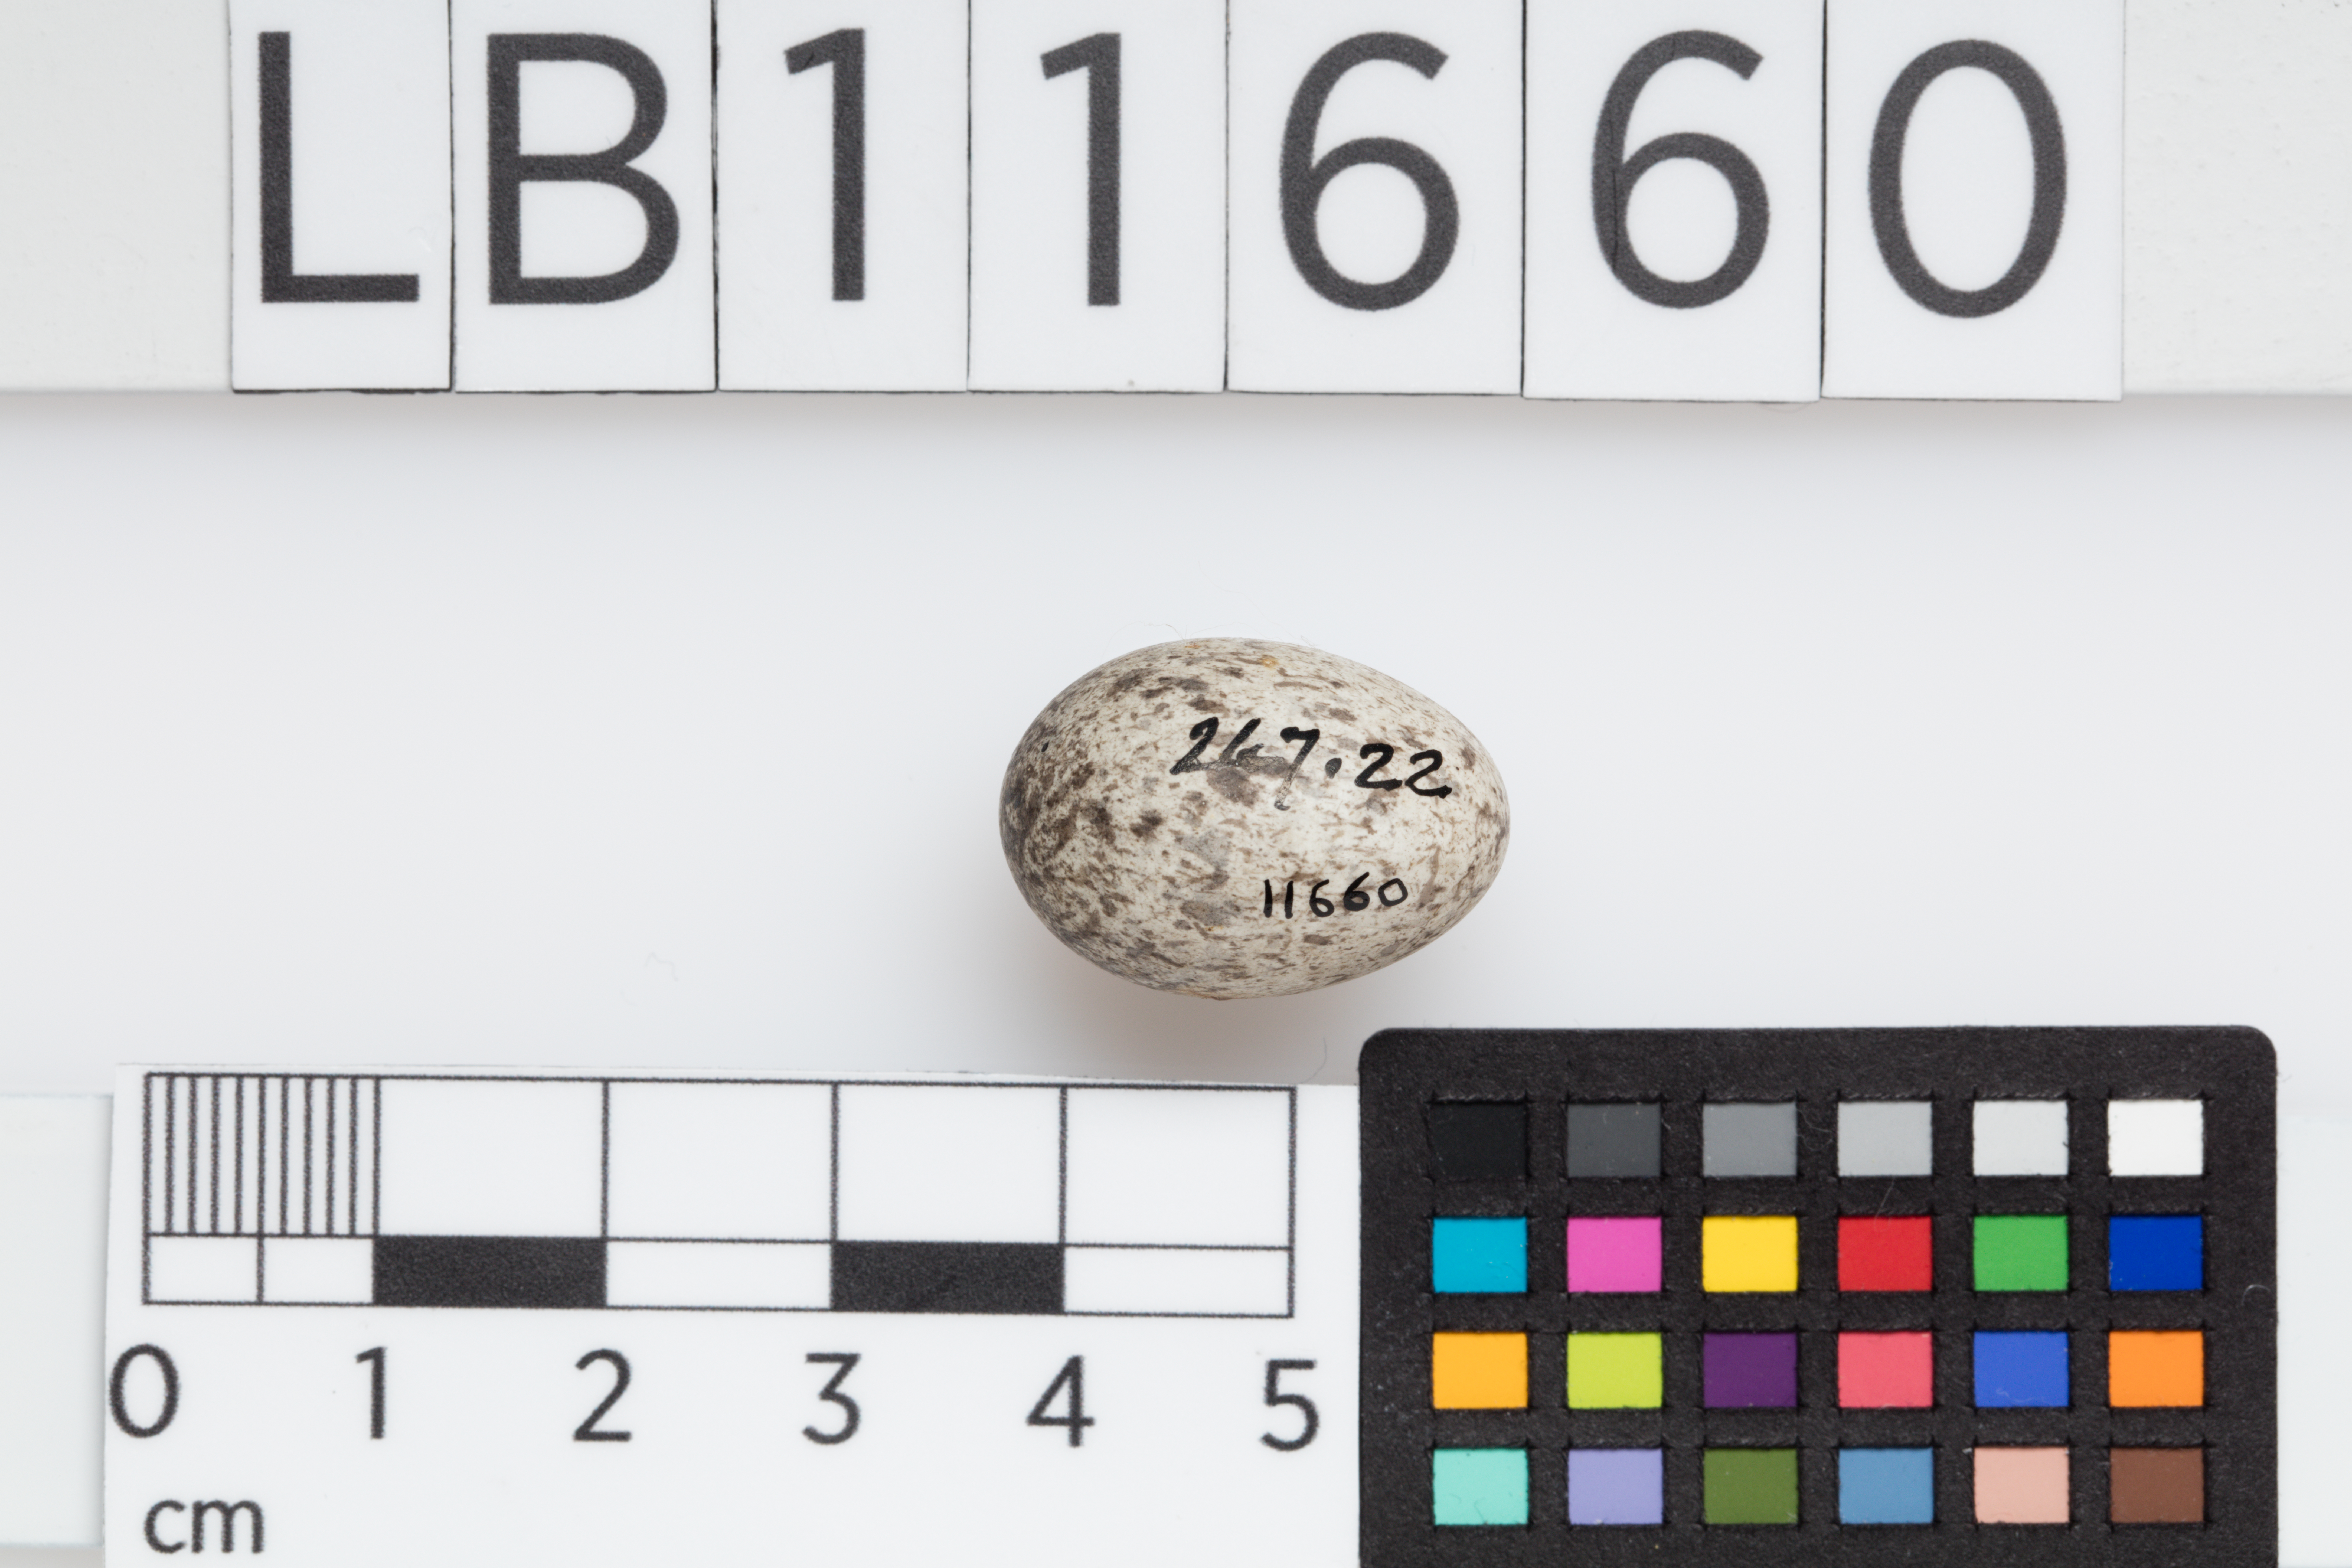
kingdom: Animalia
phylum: Chordata
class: Aves
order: Passeriformes
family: Passeridae
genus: Passer
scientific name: Passer domesticus
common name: House sparrow
